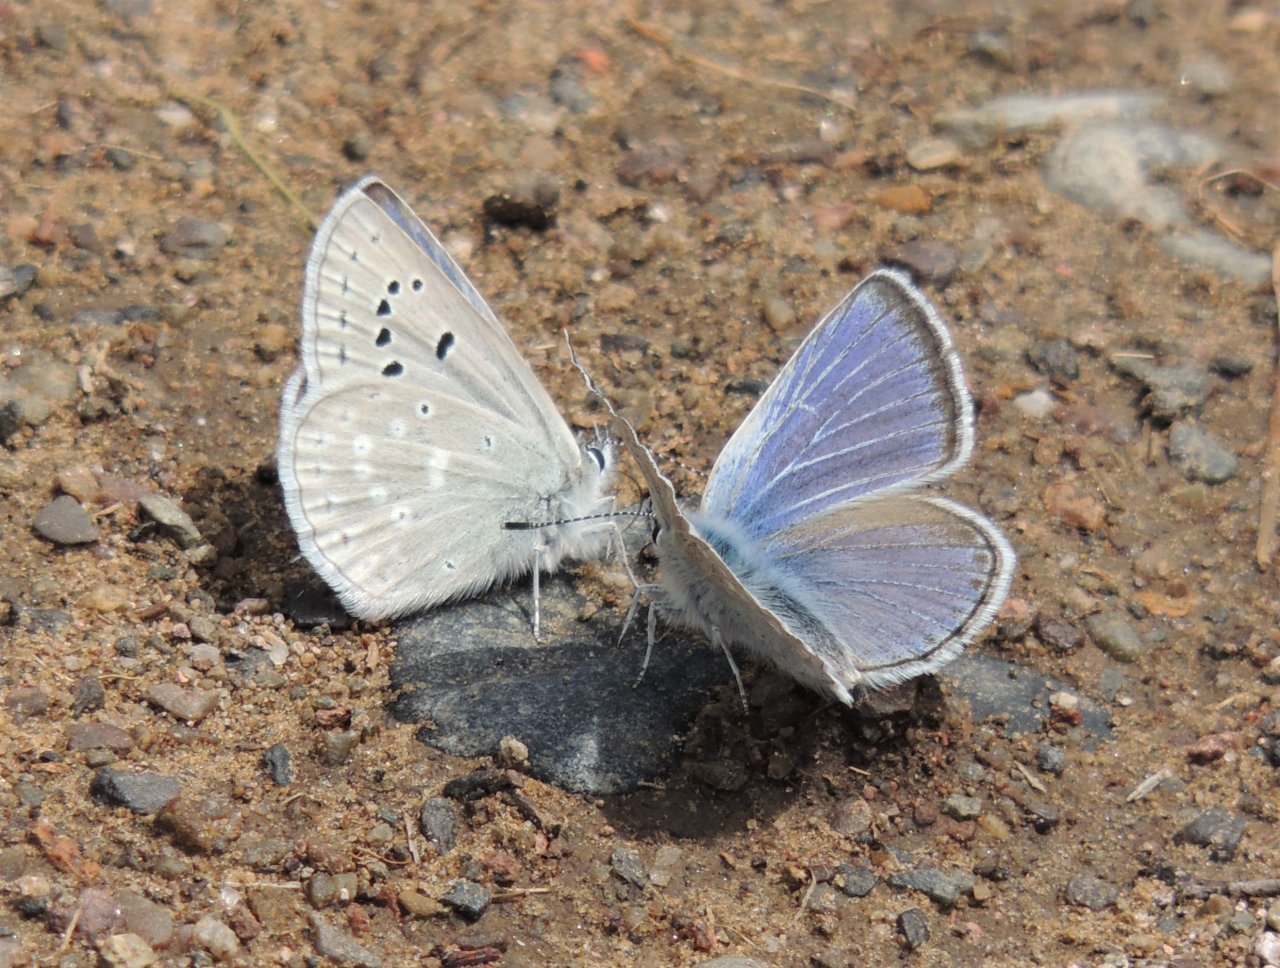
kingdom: Animalia
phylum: Arthropoda
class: Insecta
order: Lepidoptera
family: Lycaenidae
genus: Icaricia
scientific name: Icaricia icarioides
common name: Boisduval's Blue
